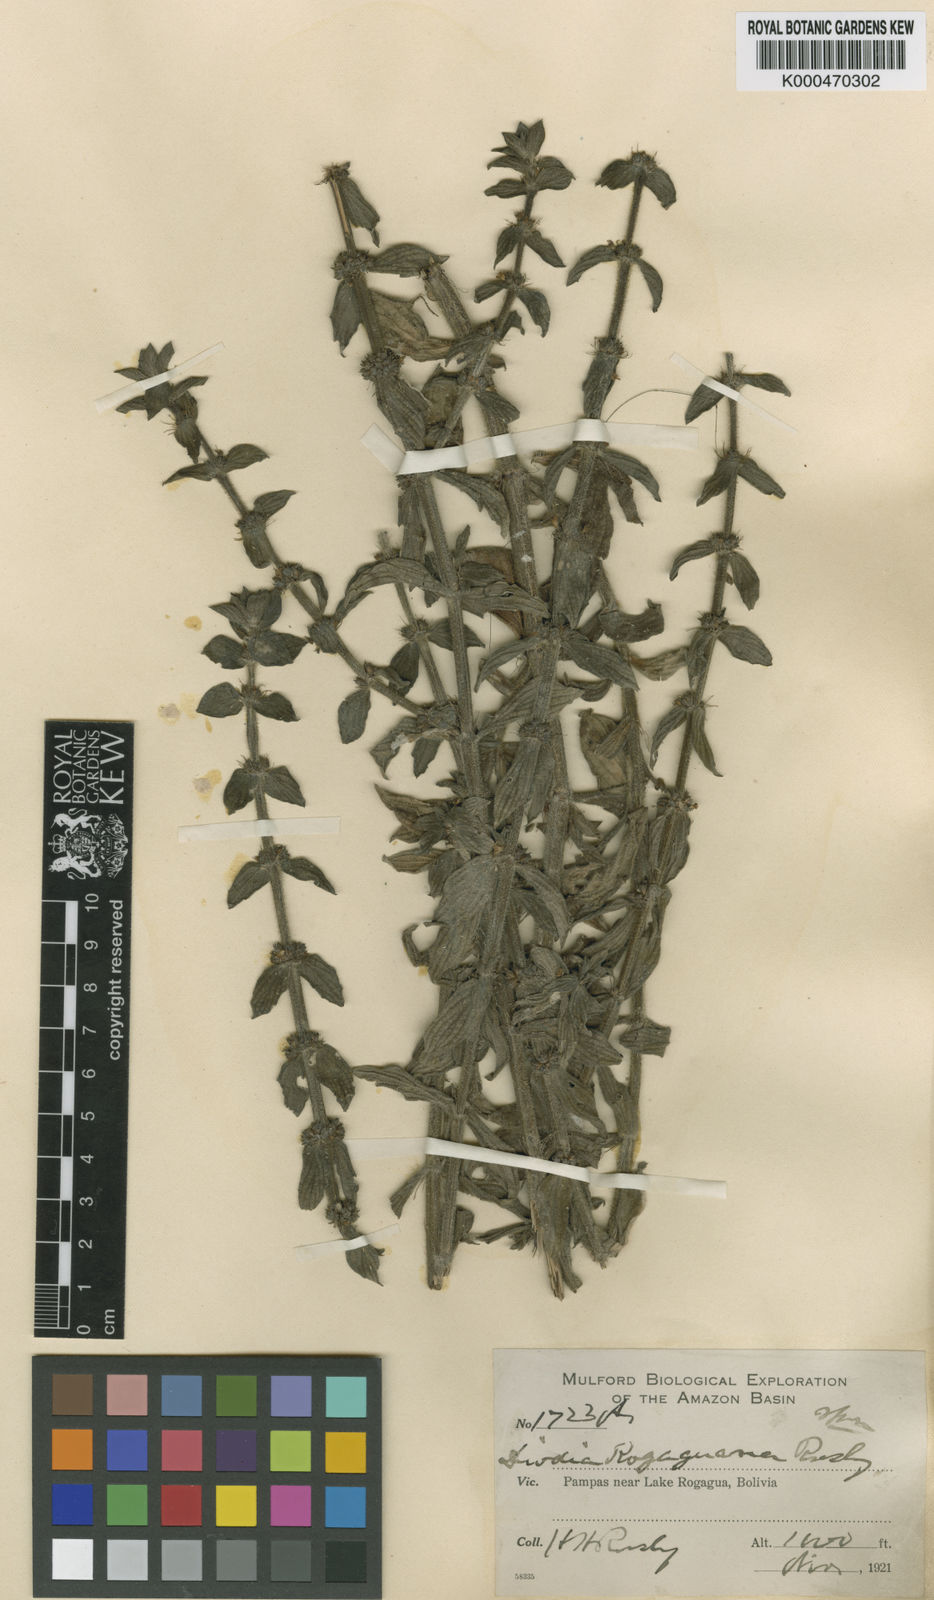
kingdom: Plantae
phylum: Tracheophyta
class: Magnoliopsida
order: Gentianales
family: Rubiaceae
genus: Spermacoce
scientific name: Spermacoce multiflora
